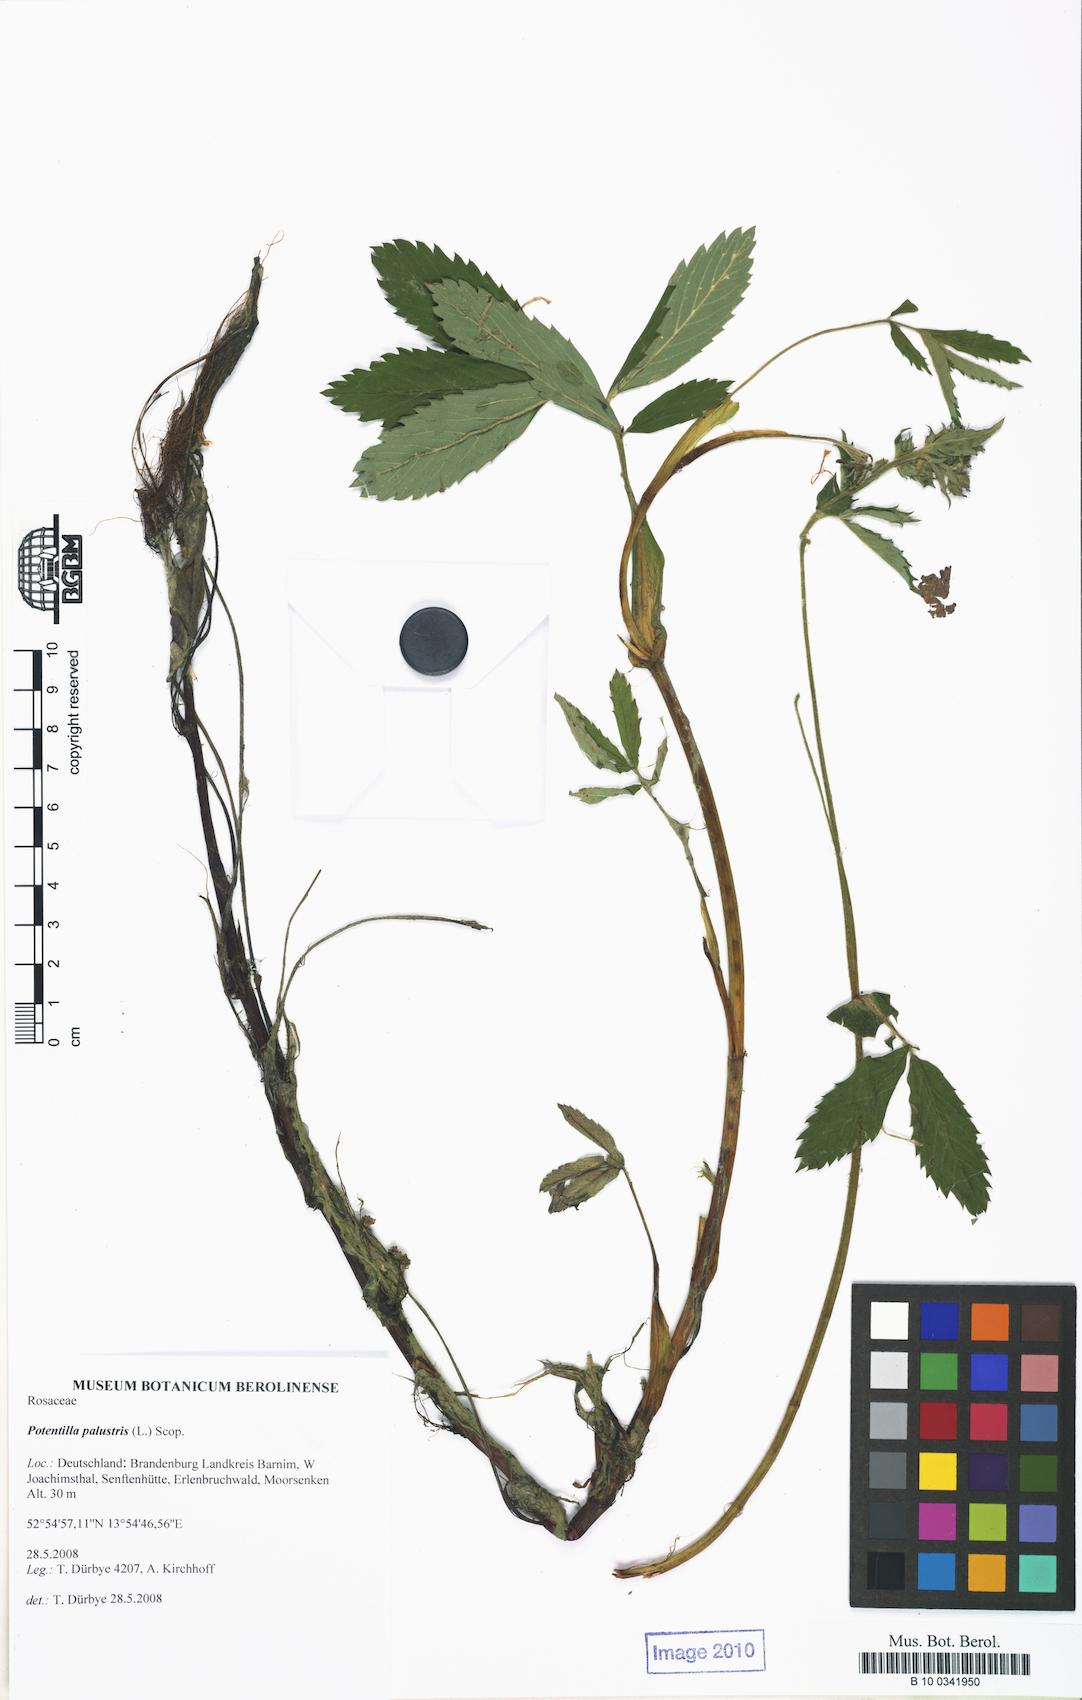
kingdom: Plantae
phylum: Tracheophyta
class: Magnoliopsida
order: Rosales
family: Rosaceae
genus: Comarum
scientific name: Comarum palustre
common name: Marsh cinquefoil
